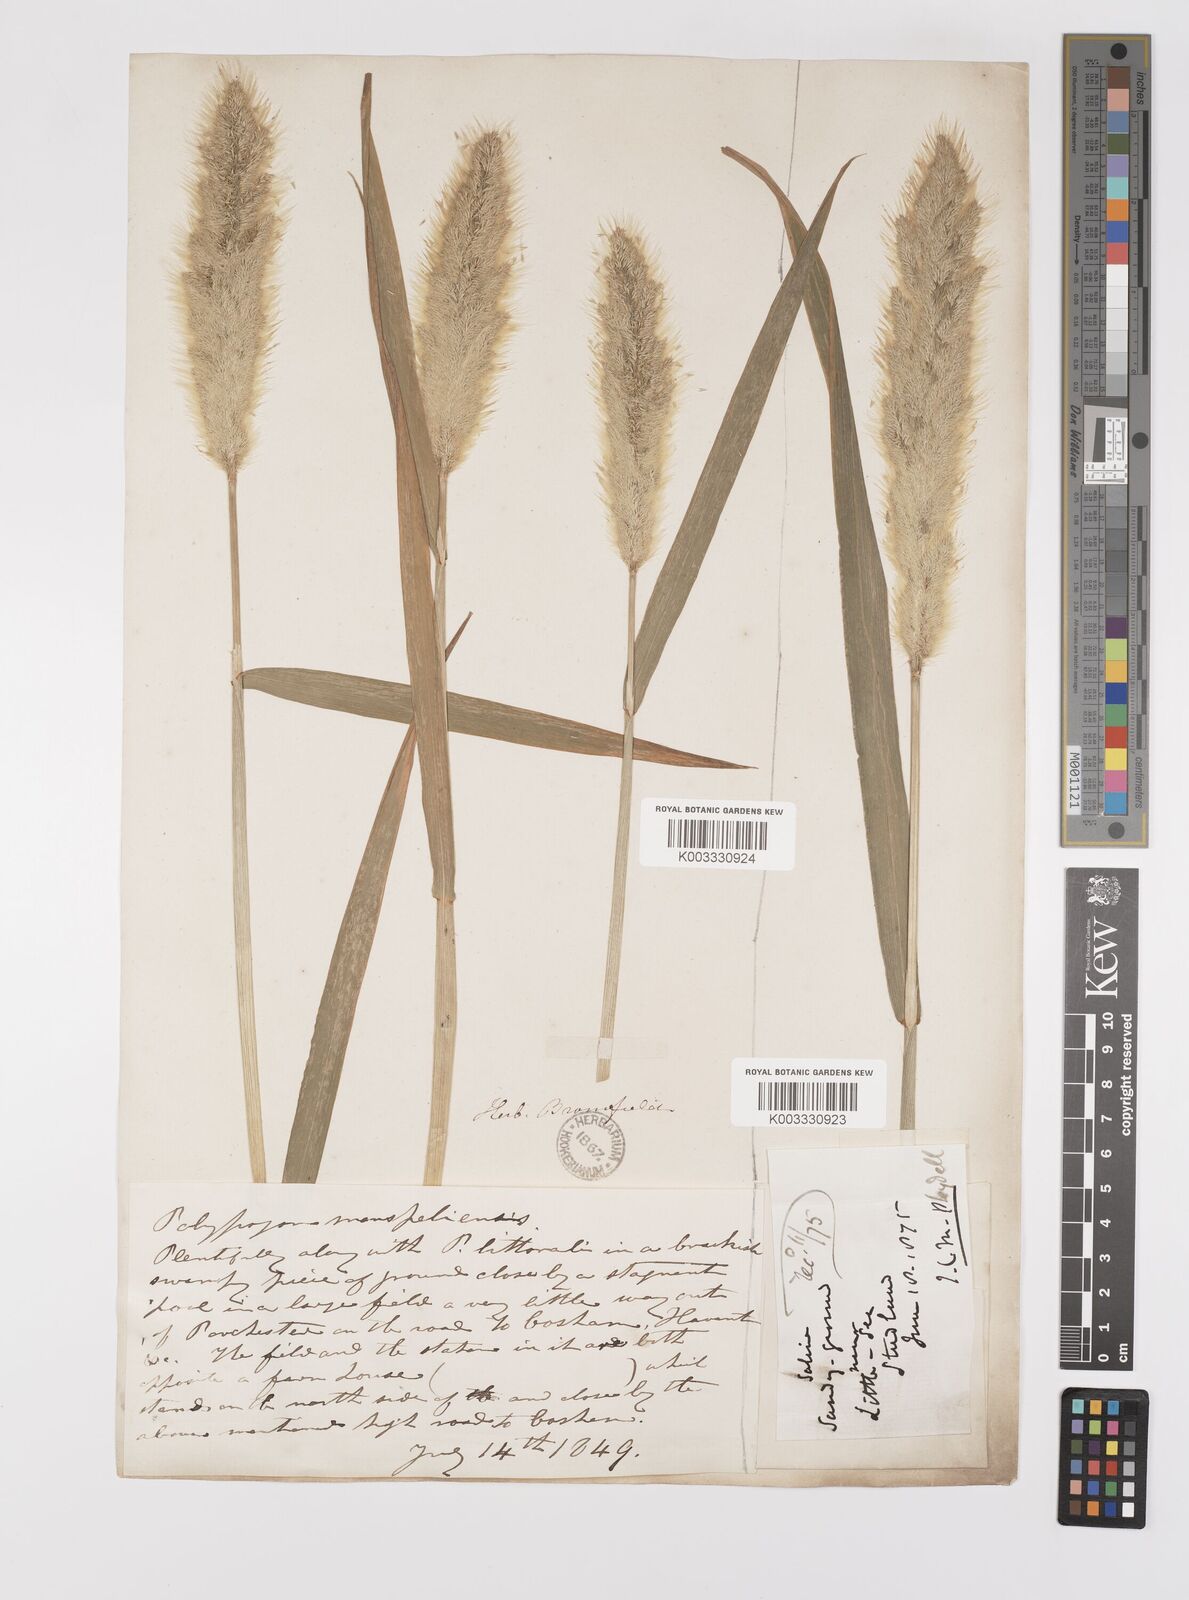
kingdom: Plantae
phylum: Tracheophyta
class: Liliopsida
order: Poales
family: Poaceae
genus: Polypogon
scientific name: Polypogon monspeliensis
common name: Annual rabbitsfoot grass
